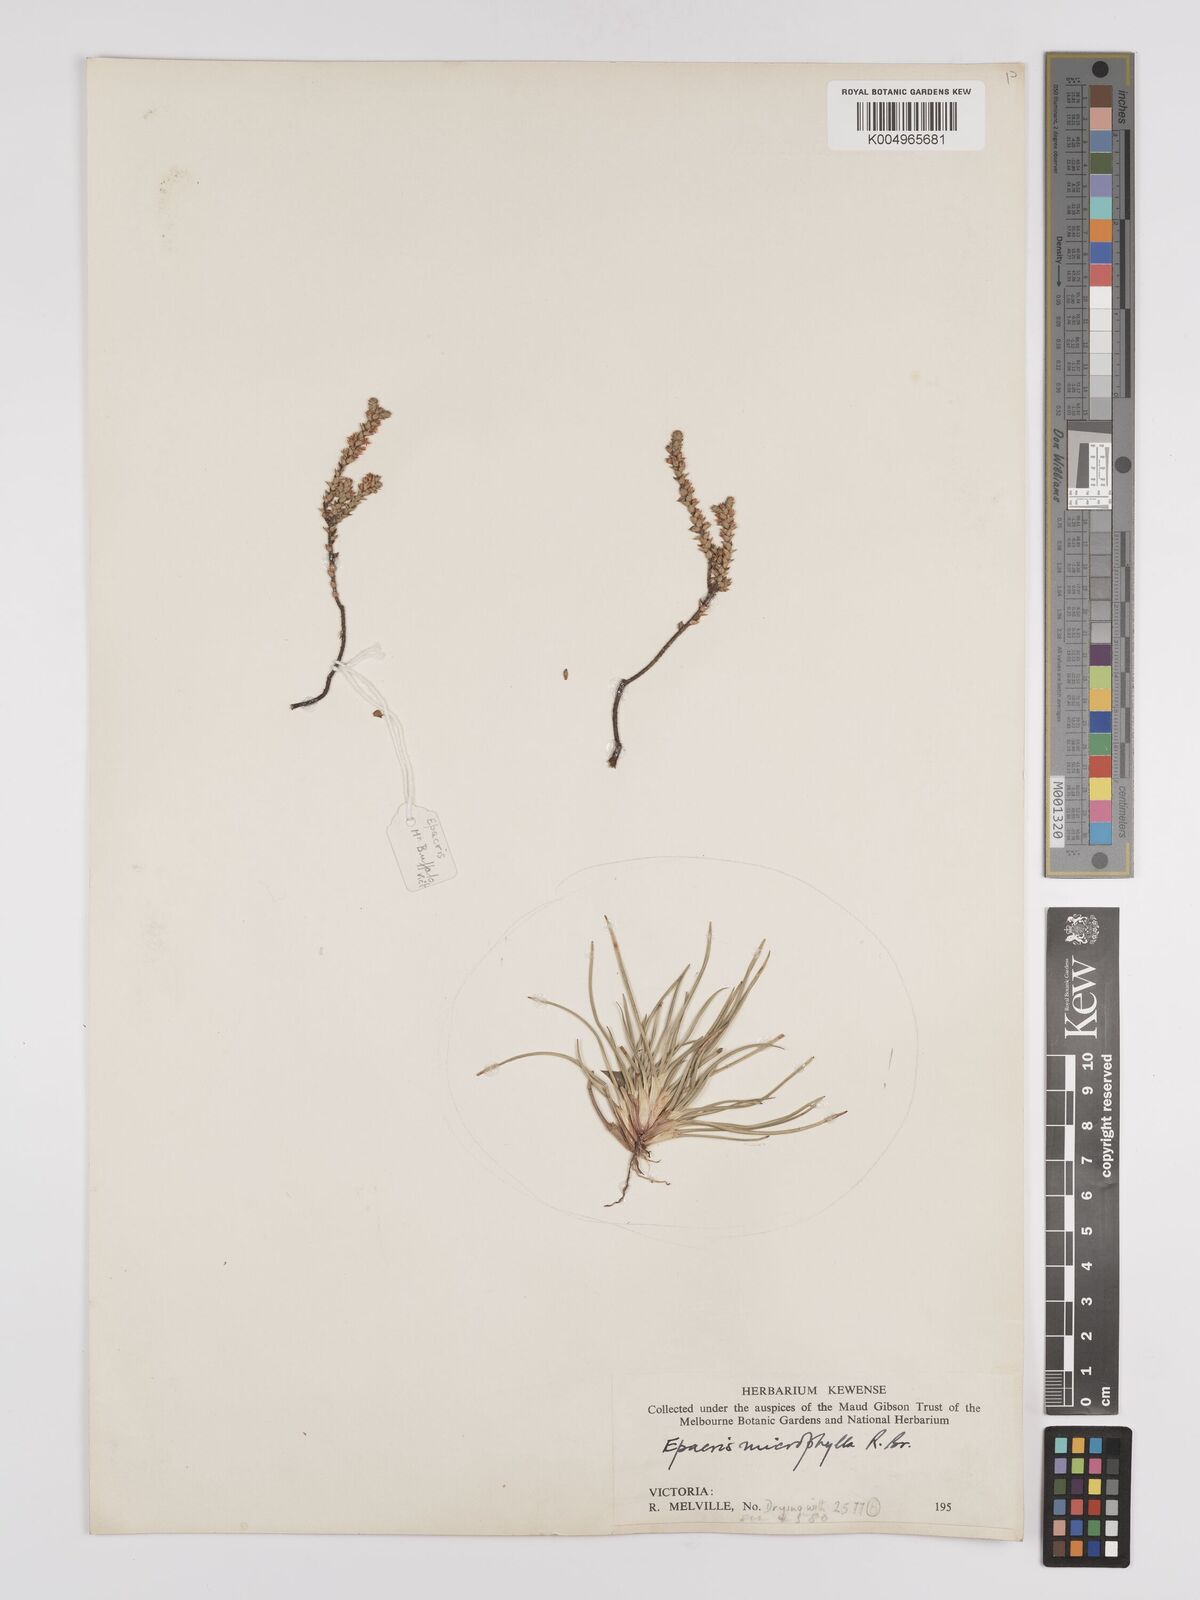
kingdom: Plantae
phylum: Tracheophyta
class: Magnoliopsida
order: Ericales
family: Ericaceae
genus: Epacris
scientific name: Epacris
